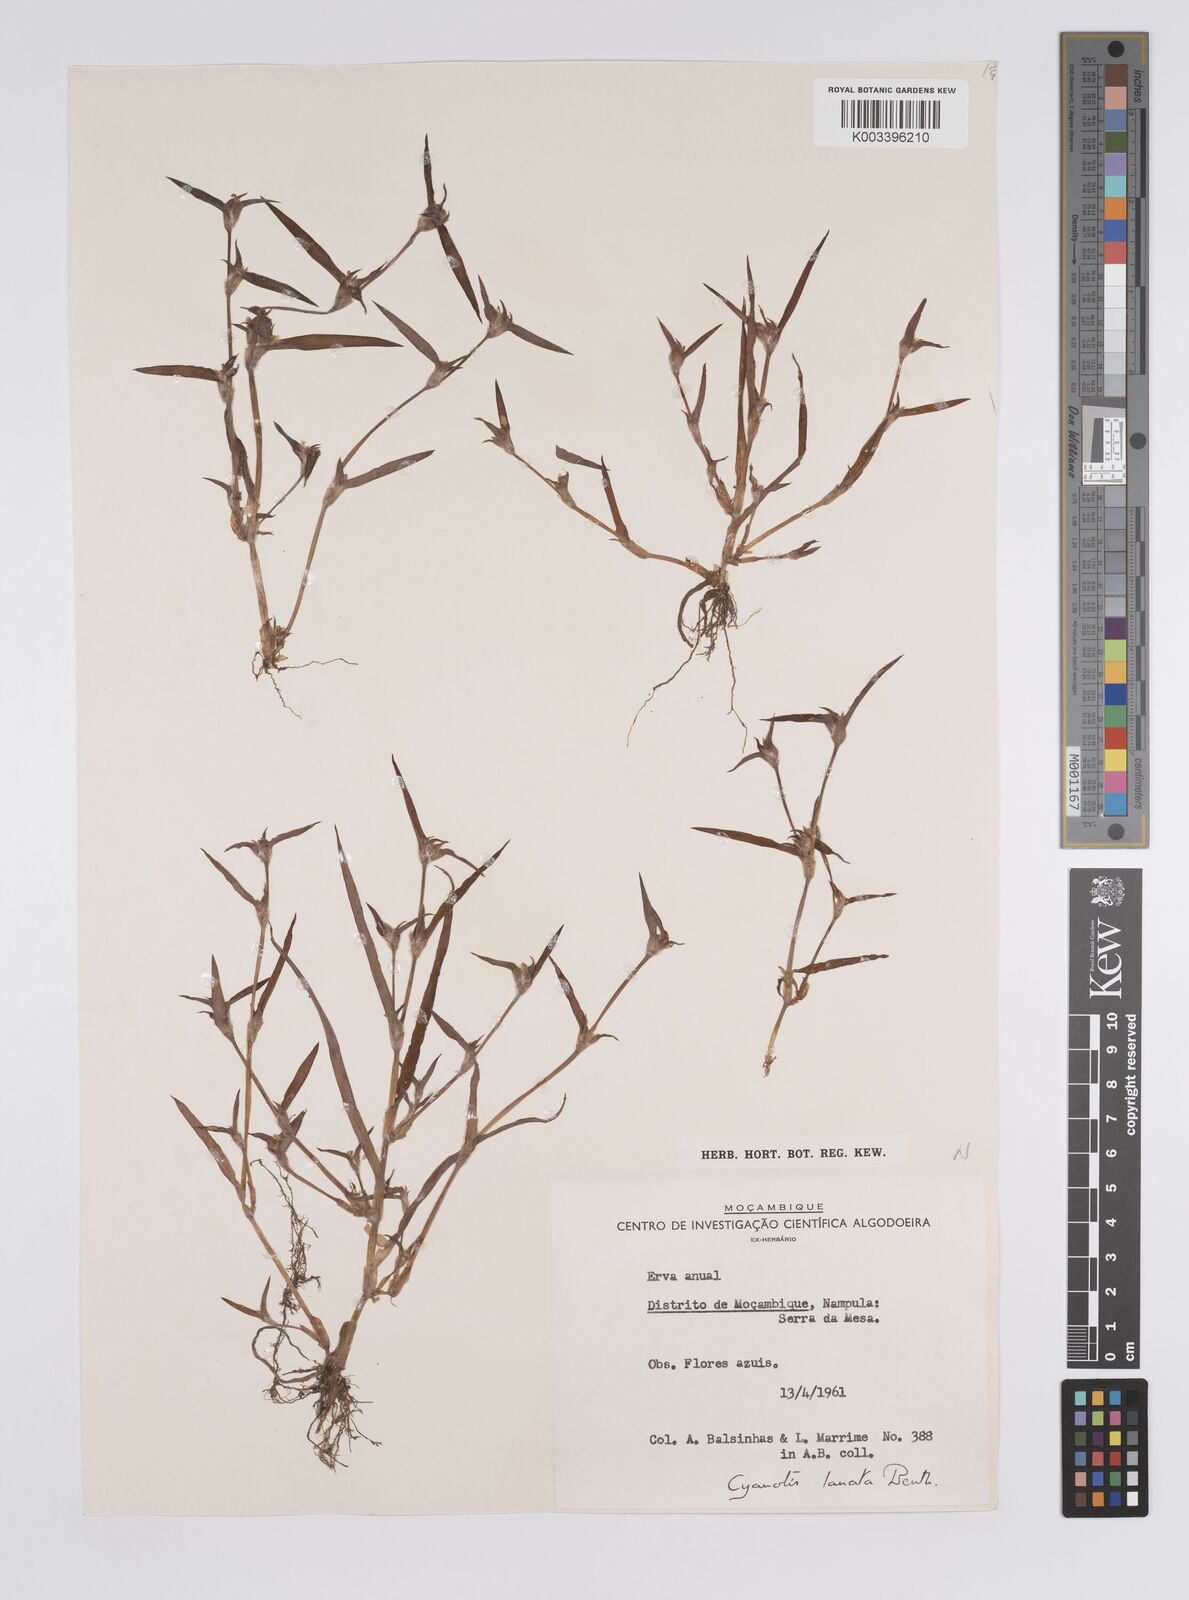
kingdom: Plantae
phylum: Tracheophyta
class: Liliopsida
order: Commelinales
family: Commelinaceae
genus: Cyanotis
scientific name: Cyanotis lanata
